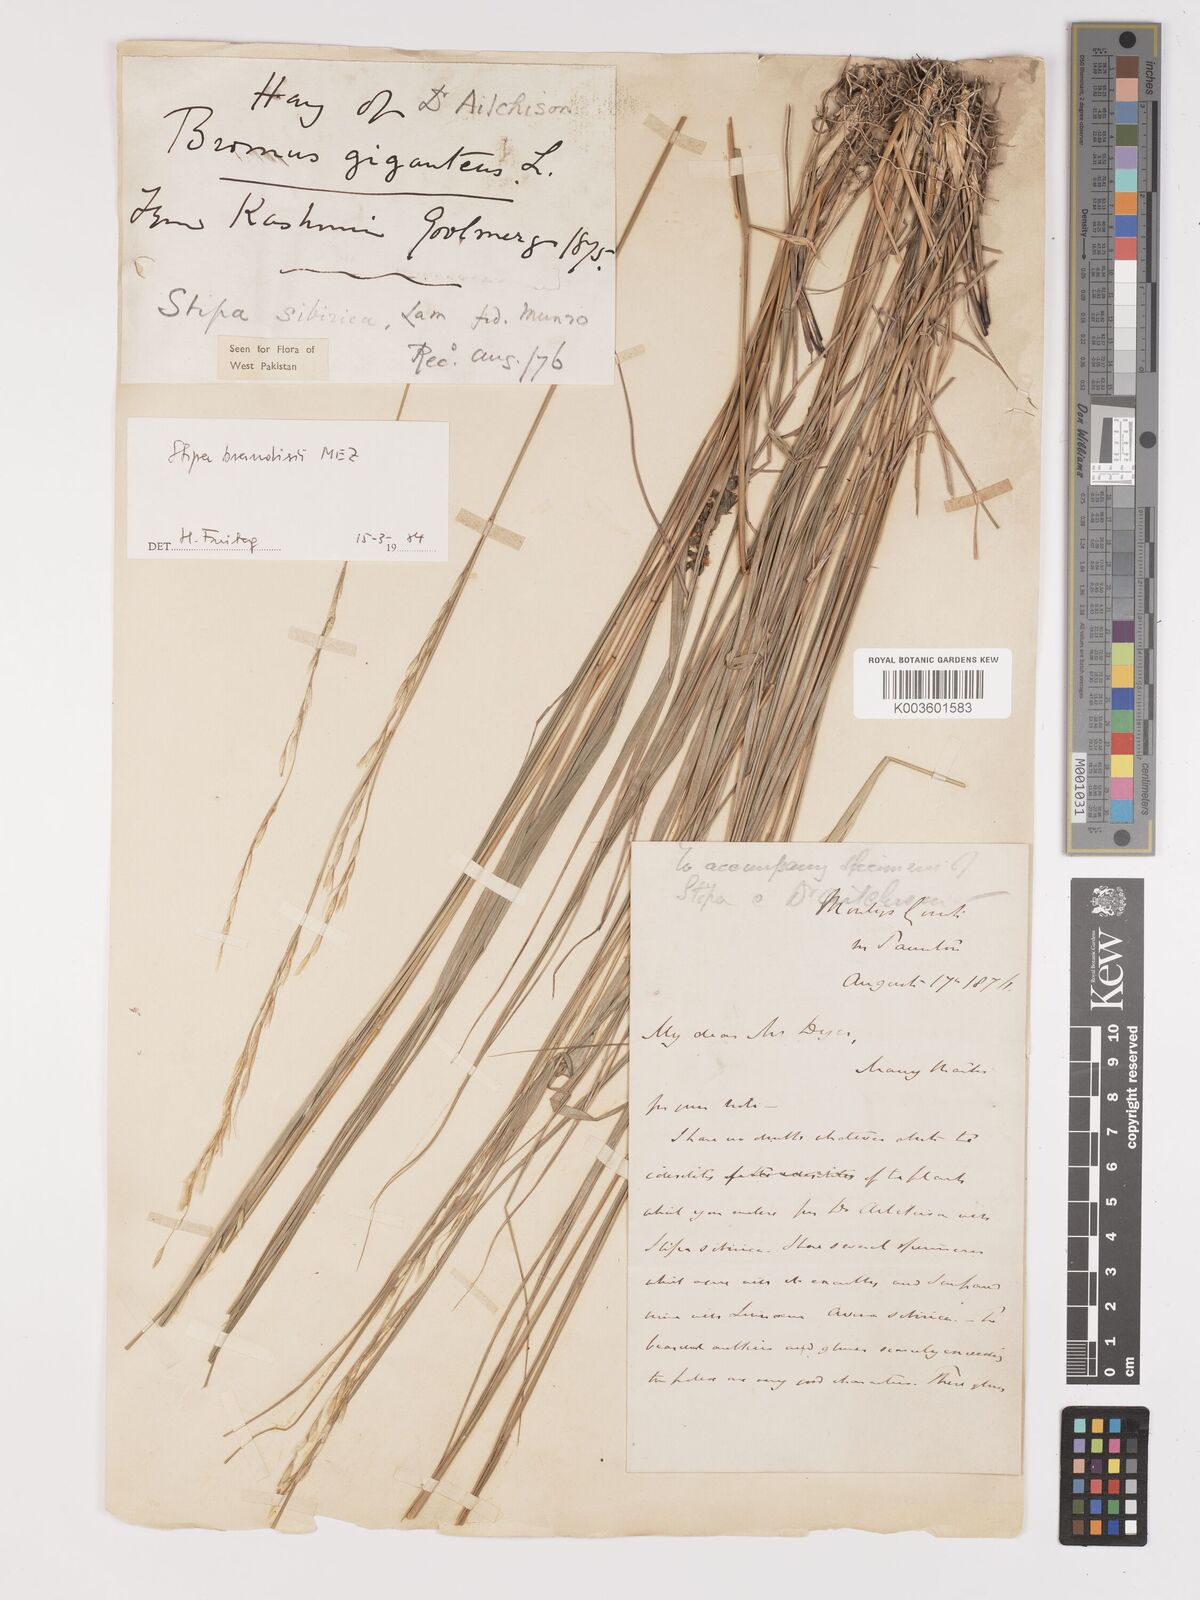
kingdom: Plantae
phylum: Tracheophyta
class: Liliopsida
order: Poales
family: Poaceae
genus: Achnatherum
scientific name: Achnatherum brandisii
